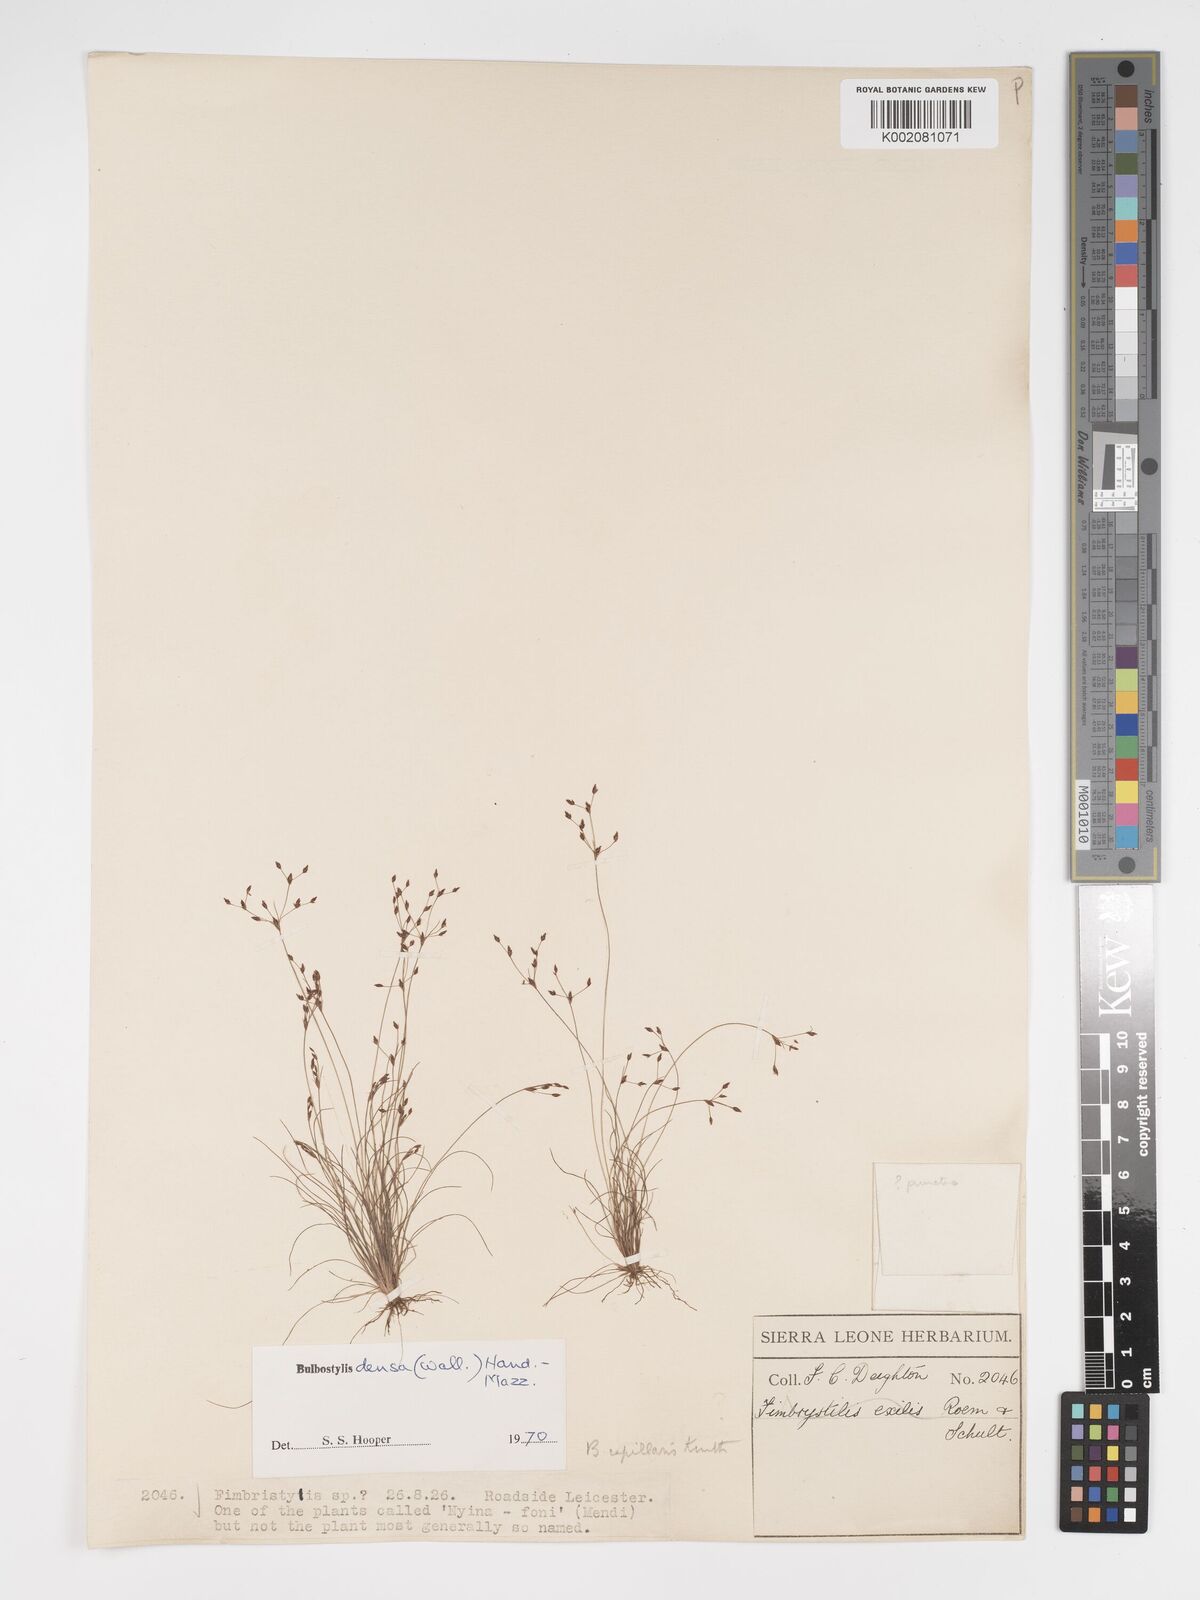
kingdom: Plantae
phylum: Tracheophyta
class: Liliopsida
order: Poales
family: Cyperaceae
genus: Bulbostylis
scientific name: Bulbostylis densa
